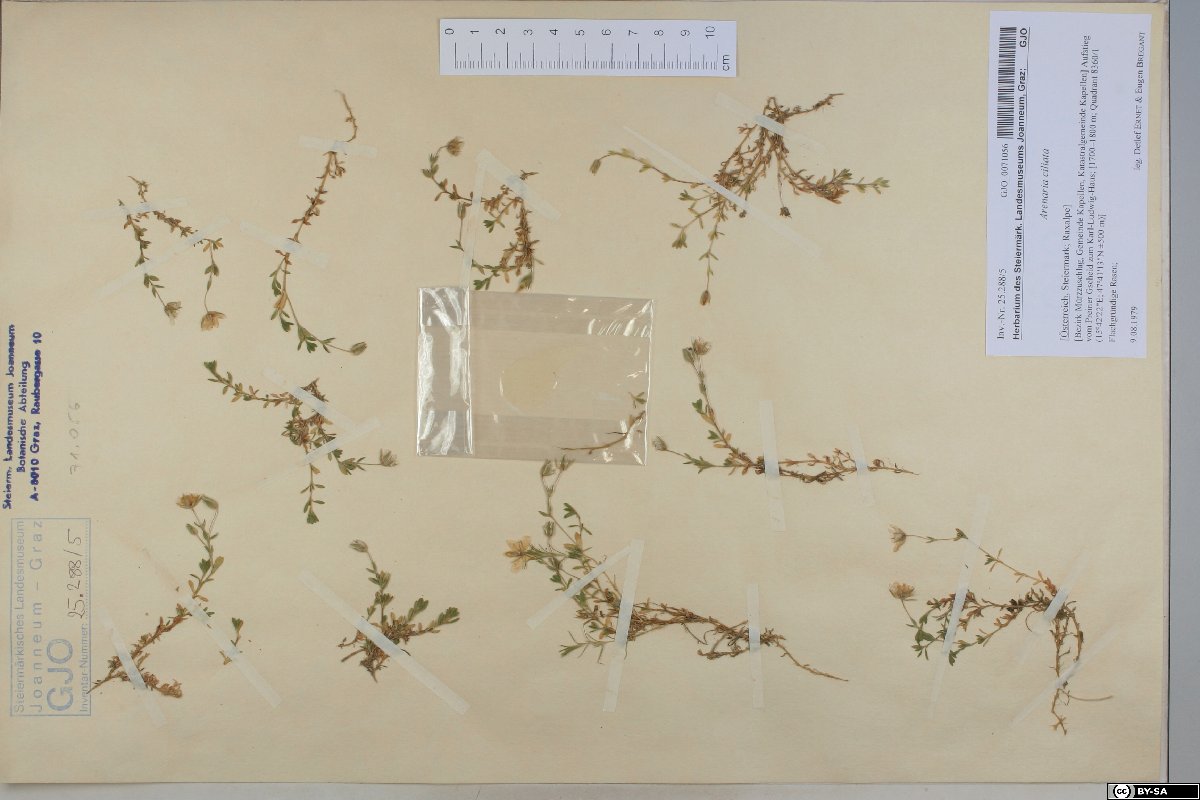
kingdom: Plantae
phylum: Tracheophyta
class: Magnoliopsida
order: Caryophyllales
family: Caryophyllaceae
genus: Arenaria
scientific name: Arenaria ciliata
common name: Fringed sandwort
